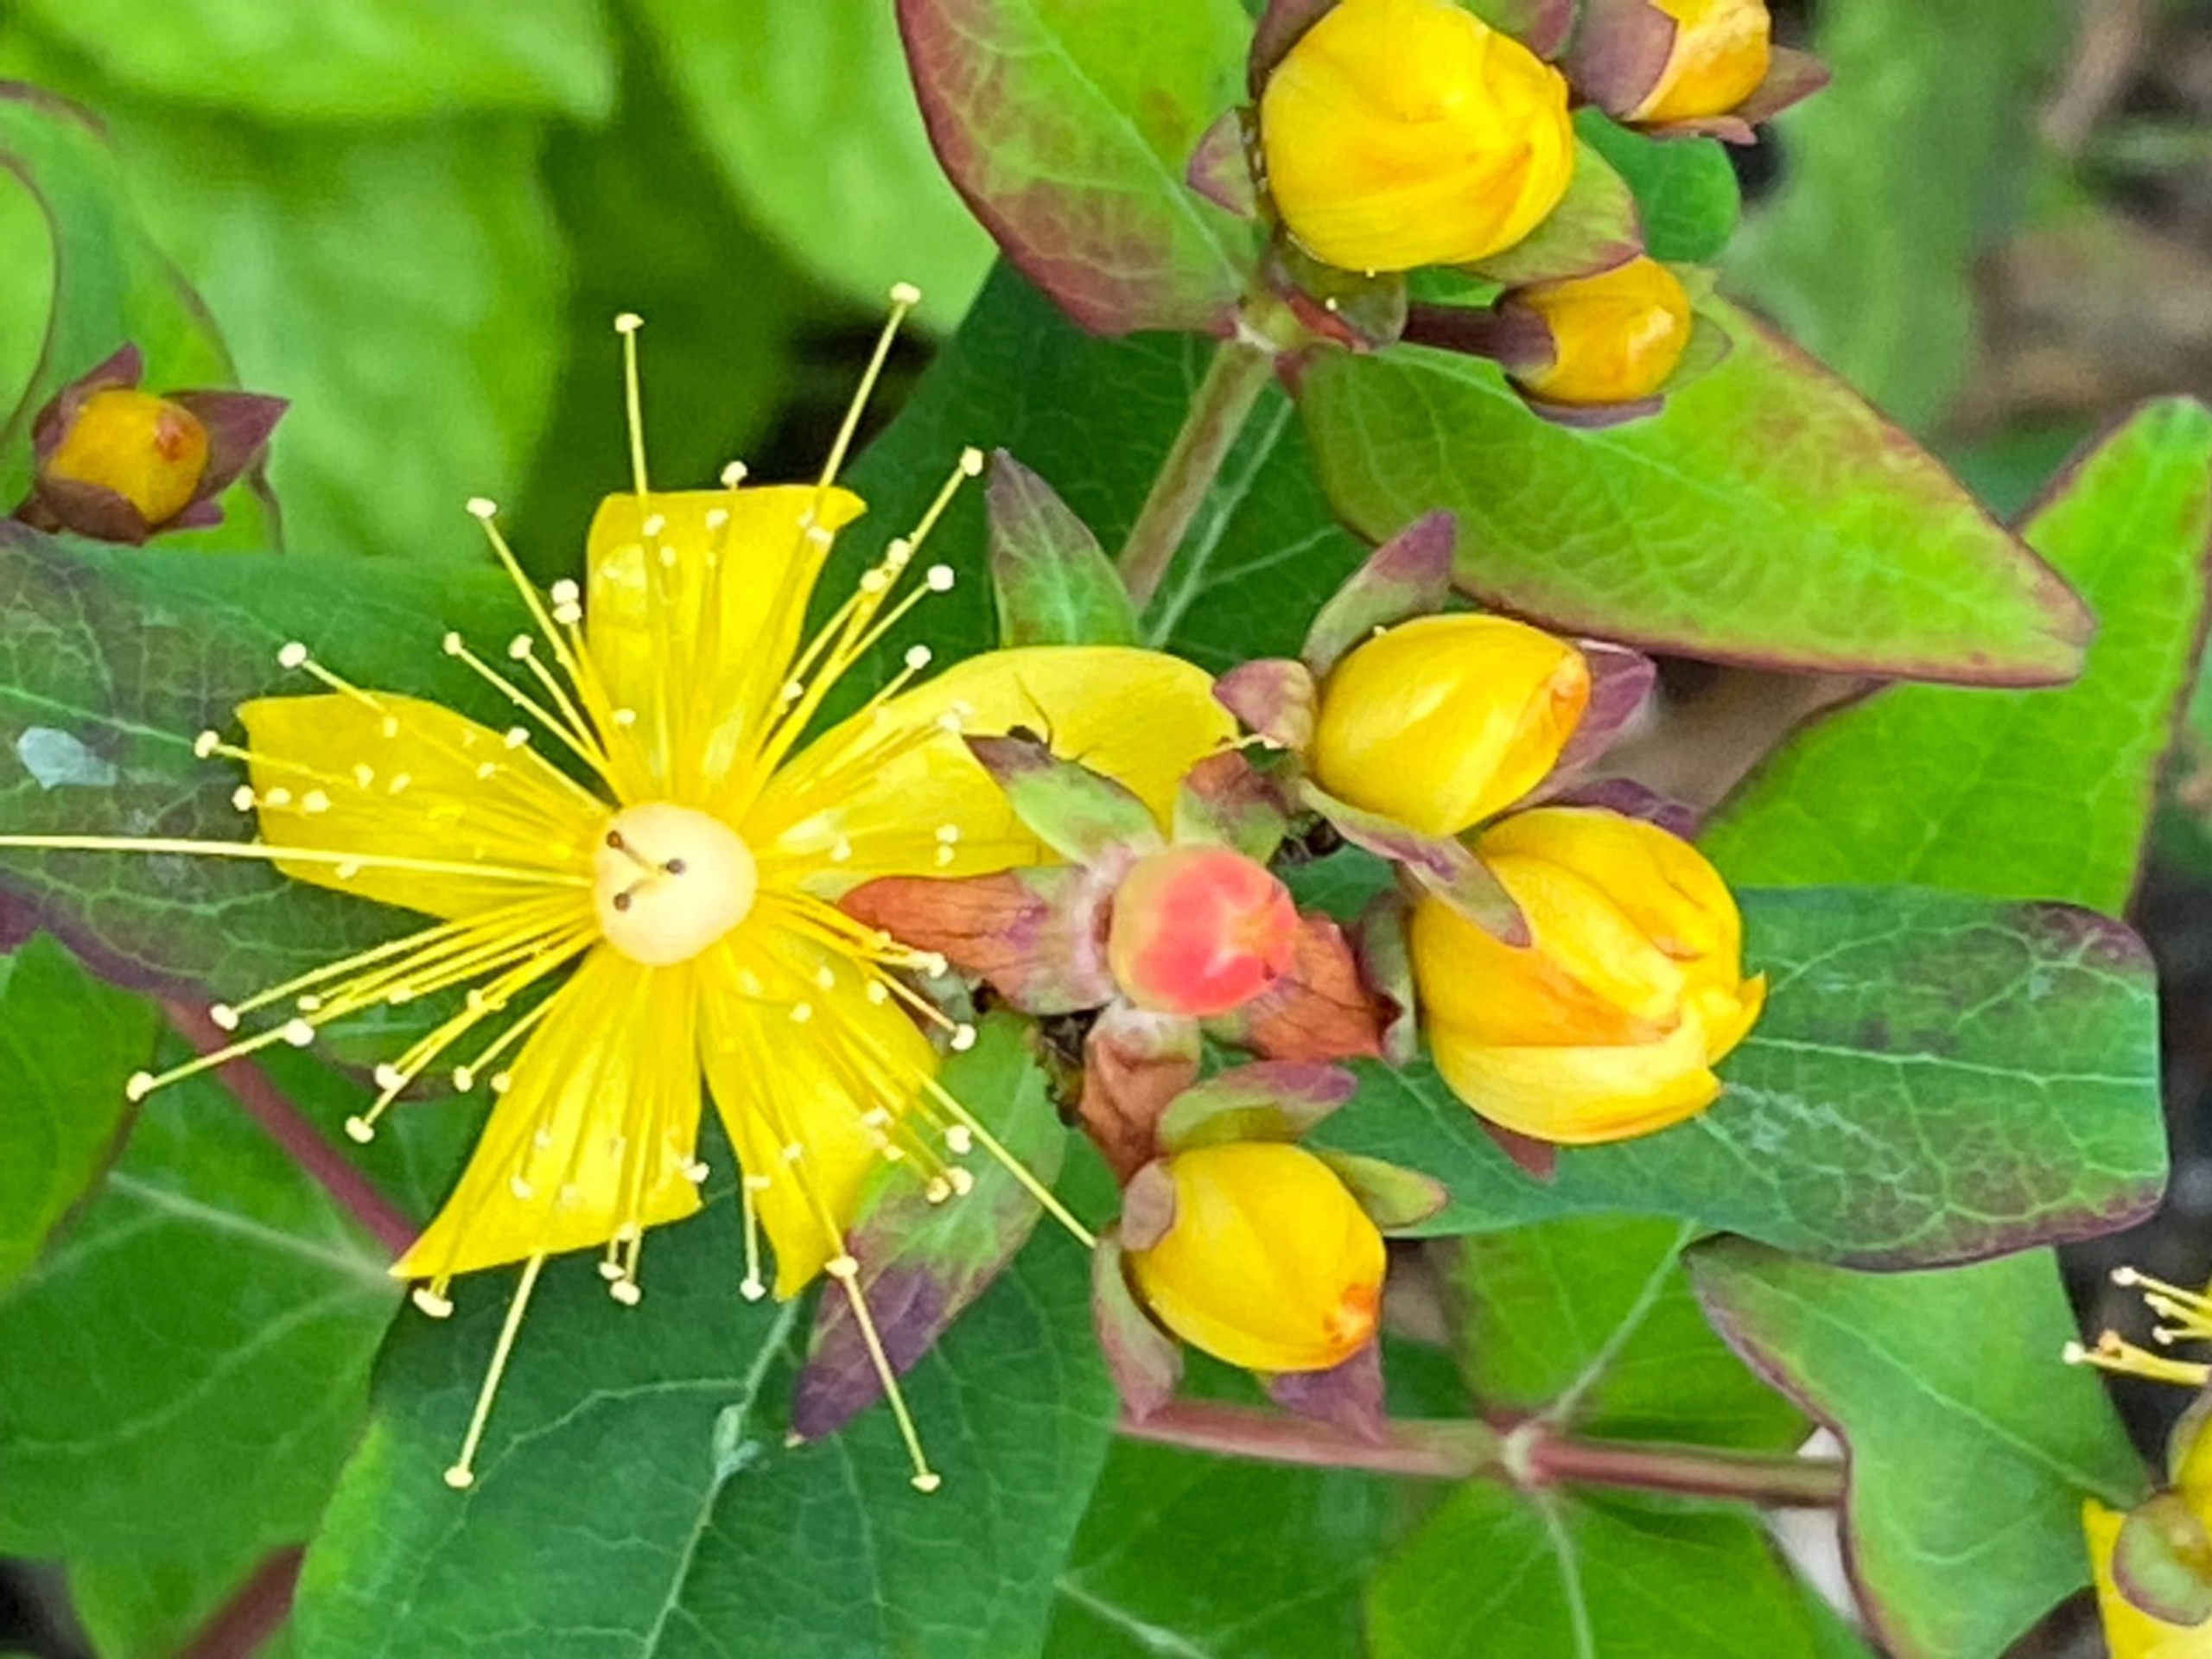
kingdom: Plantae
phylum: Tracheophyta
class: Magnoliopsida
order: Malpighiales
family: Hypericaceae
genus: Hypericum
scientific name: Hypericum androsaemum
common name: Bær-perikon
